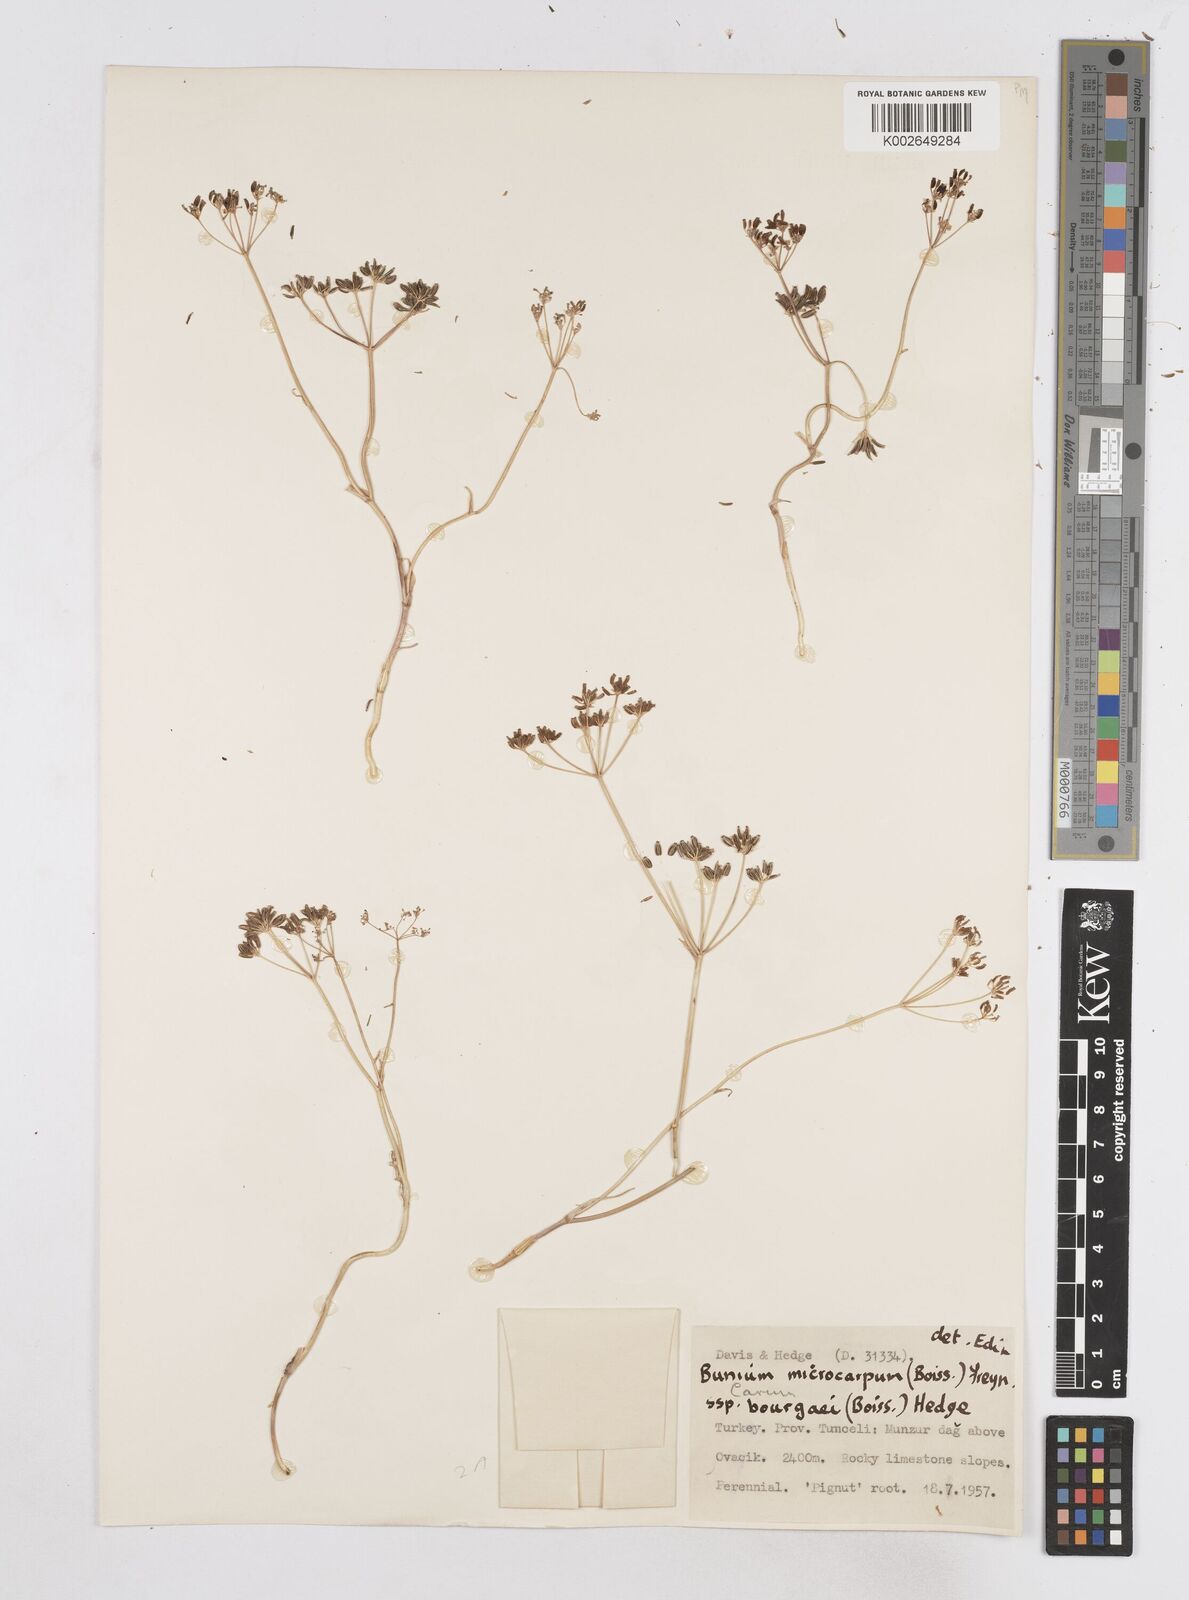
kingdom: Plantae
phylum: Tracheophyta
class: Magnoliopsida
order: Apiales
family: Apiaceae
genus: Bunium
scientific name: Bunium bourgaei
